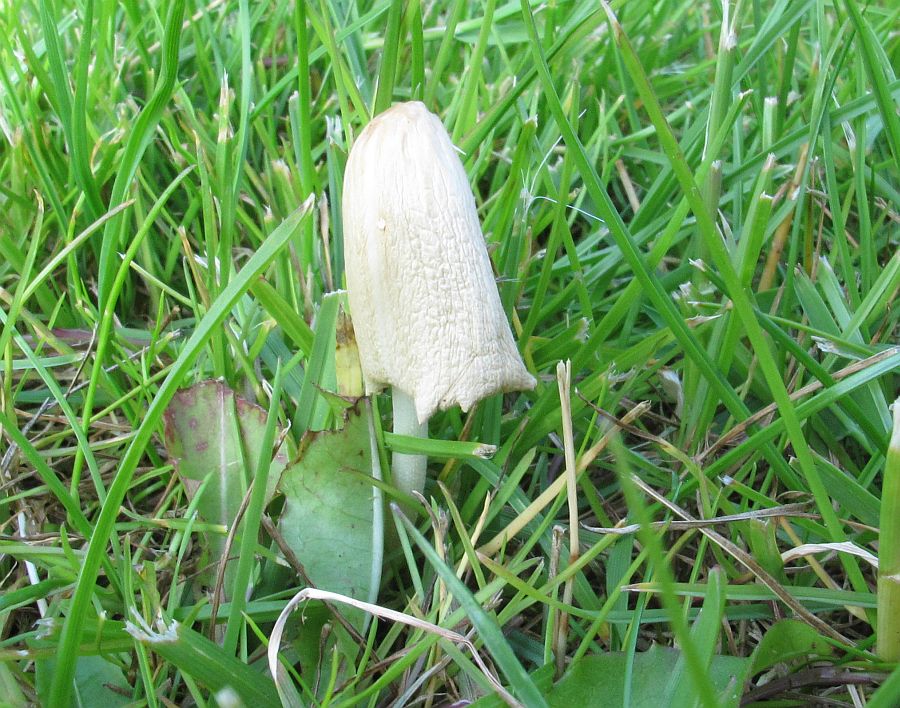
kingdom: Fungi
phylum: Basidiomycota
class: Agaricomycetes
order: Agaricales
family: Bolbitiaceae
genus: Conocybe
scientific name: Conocybe apala
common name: mælkehvid keglehat
